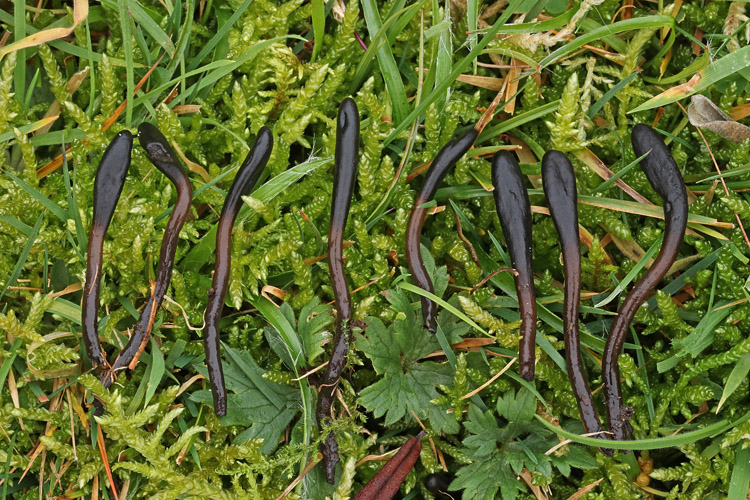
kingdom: Fungi
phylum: Ascomycota
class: Geoglossomycetes
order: Geoglossales
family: Geoglossaceae
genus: Glutinoglossum
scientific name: Glutinoglossum glutinosum
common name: slimet jordtunge
